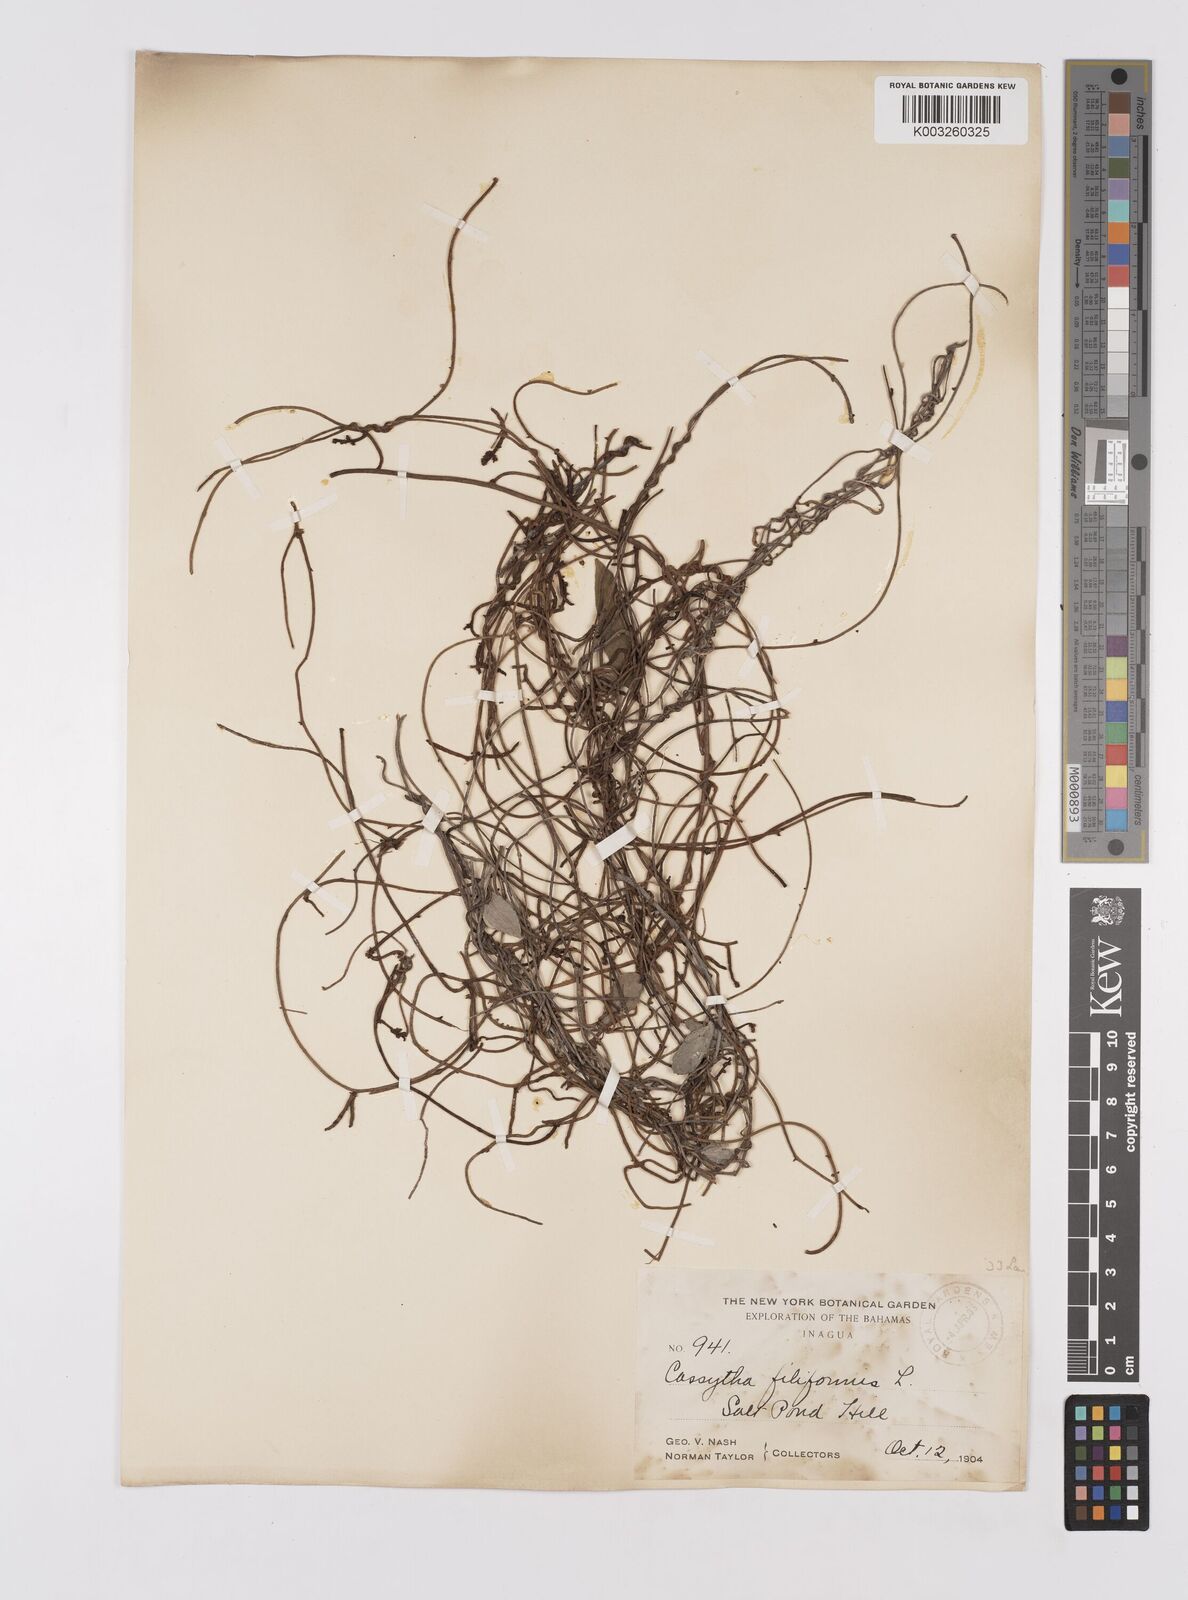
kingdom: Plantae
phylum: Tracheophyta
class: Magnoliopsida
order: Laurales
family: Lauraceae
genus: Cassytha
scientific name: Cassytha filiformis
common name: Dodder-laurel
